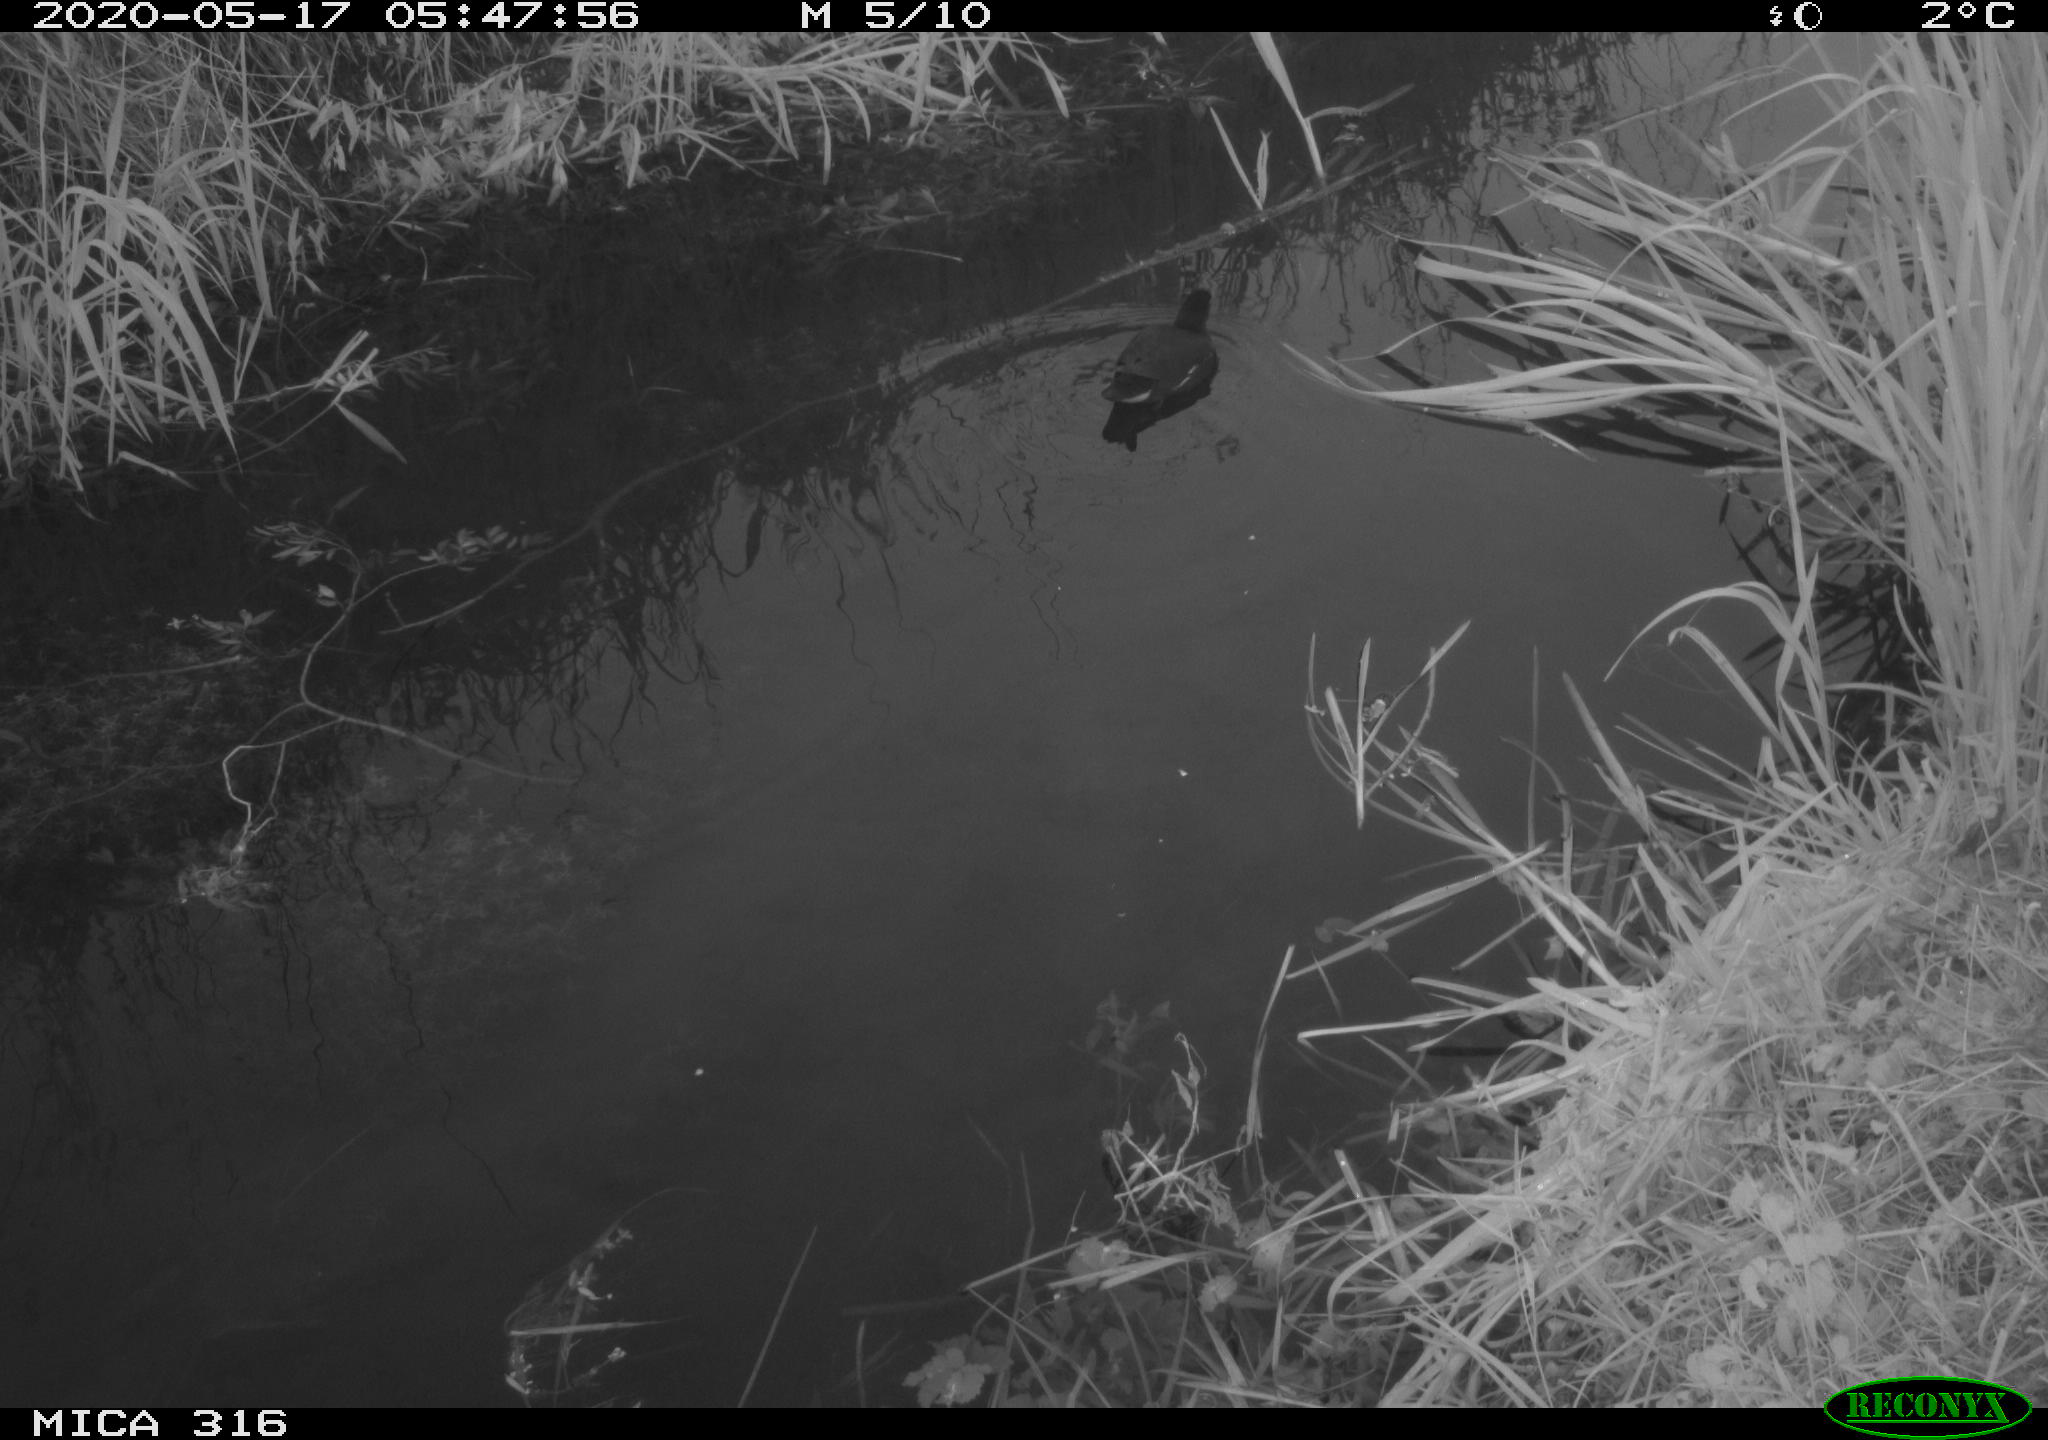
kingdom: Animalia
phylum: Chordata
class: Aves
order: Gruiformes
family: Rallidae
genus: Gallinula
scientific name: Gallinula chloropus
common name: Common moorhen
